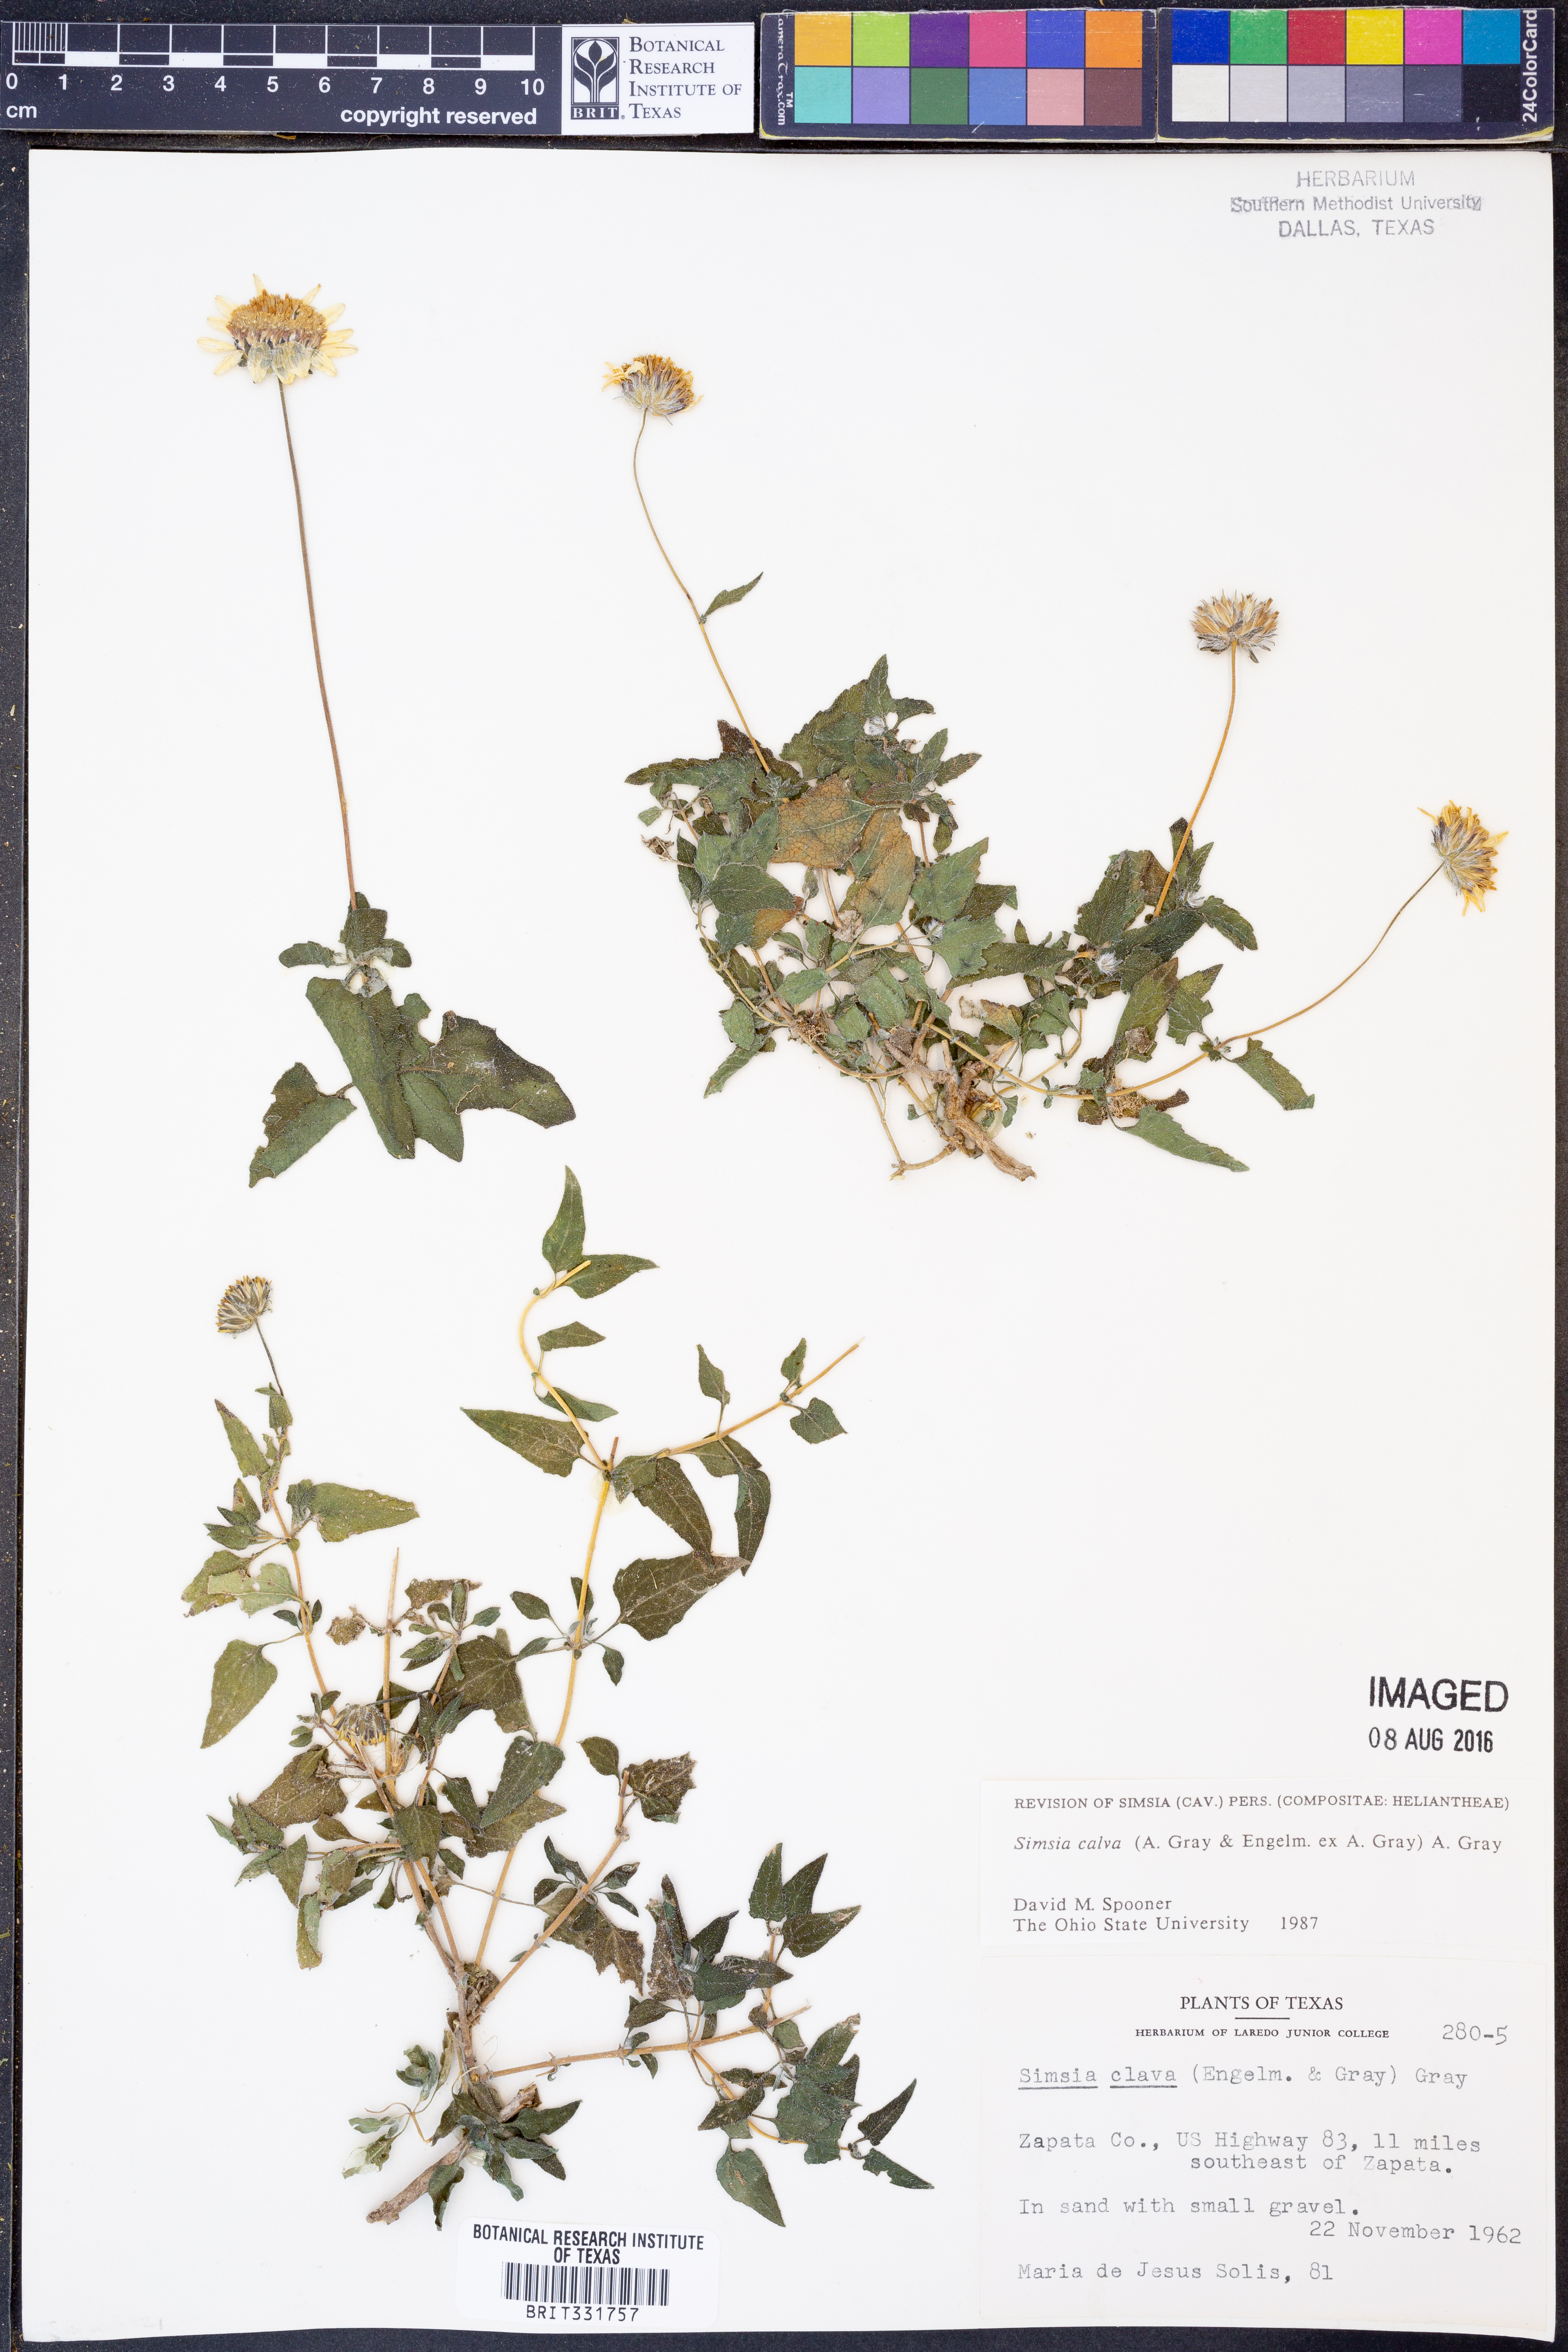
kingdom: Plantae
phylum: Tracheophyta
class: Magnoliopsida
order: Asterales
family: Asteraceae
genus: Simsia
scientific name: Simsia calva
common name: Awnless bush-sunflower
